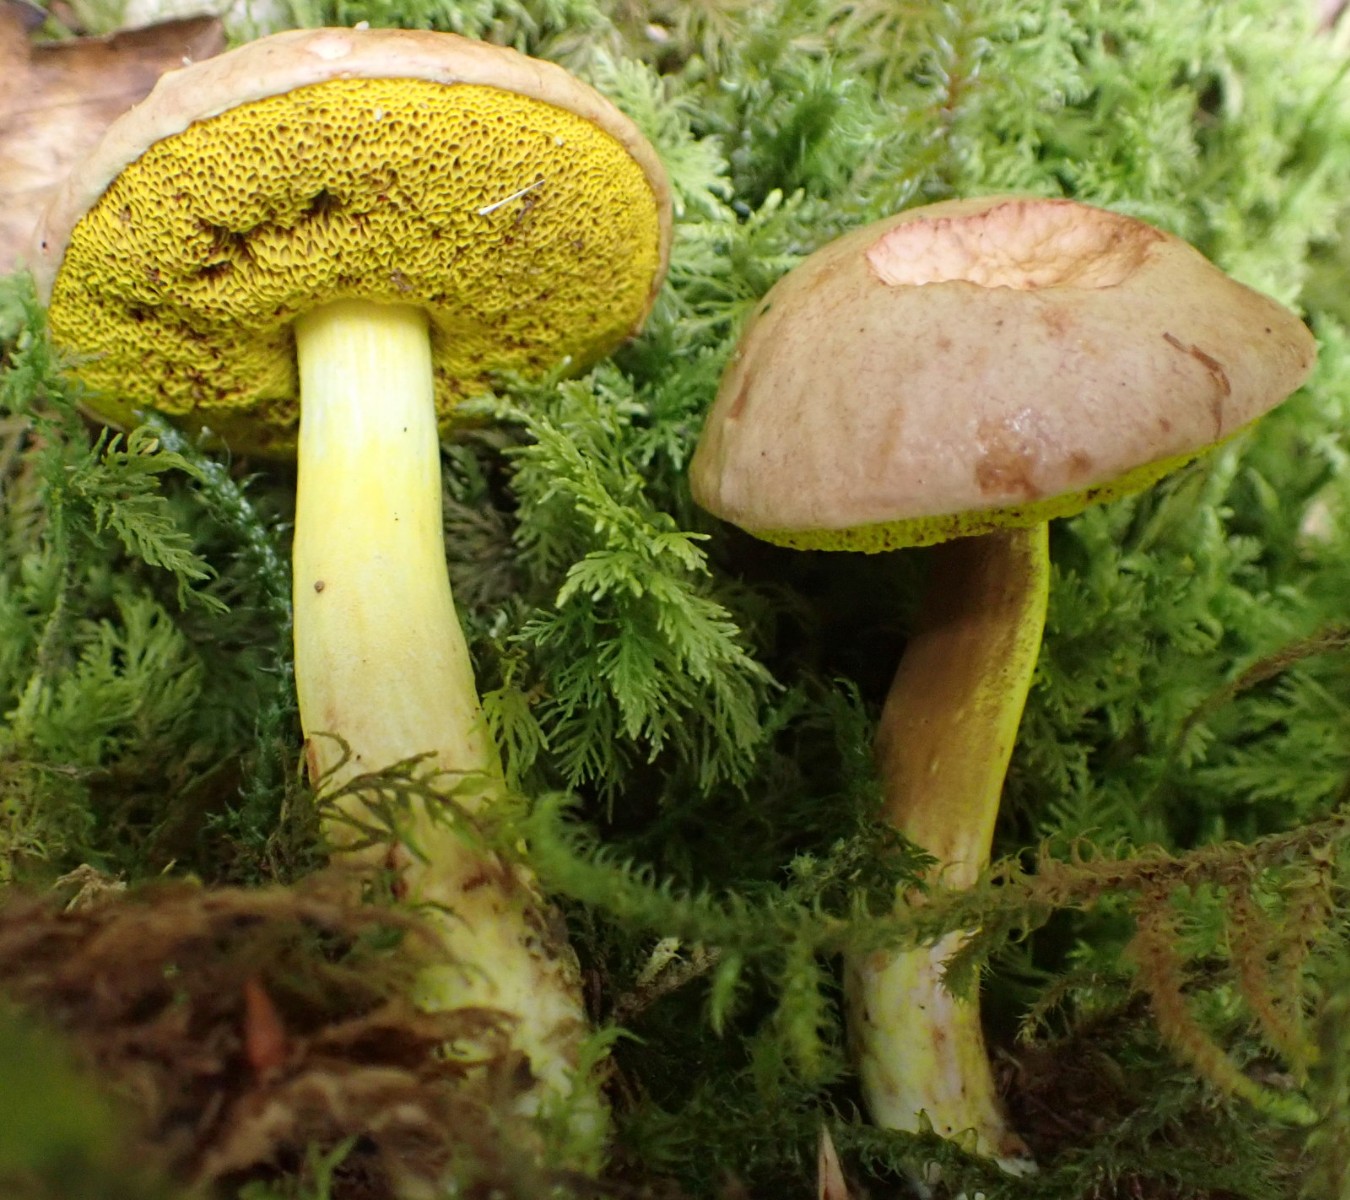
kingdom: Fungi
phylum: Basidiomycota
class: Agaricomycetes
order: Boletales
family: Boletaceae
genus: Aureoboletus
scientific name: Aureoboletus gentilis
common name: guldrørhat
